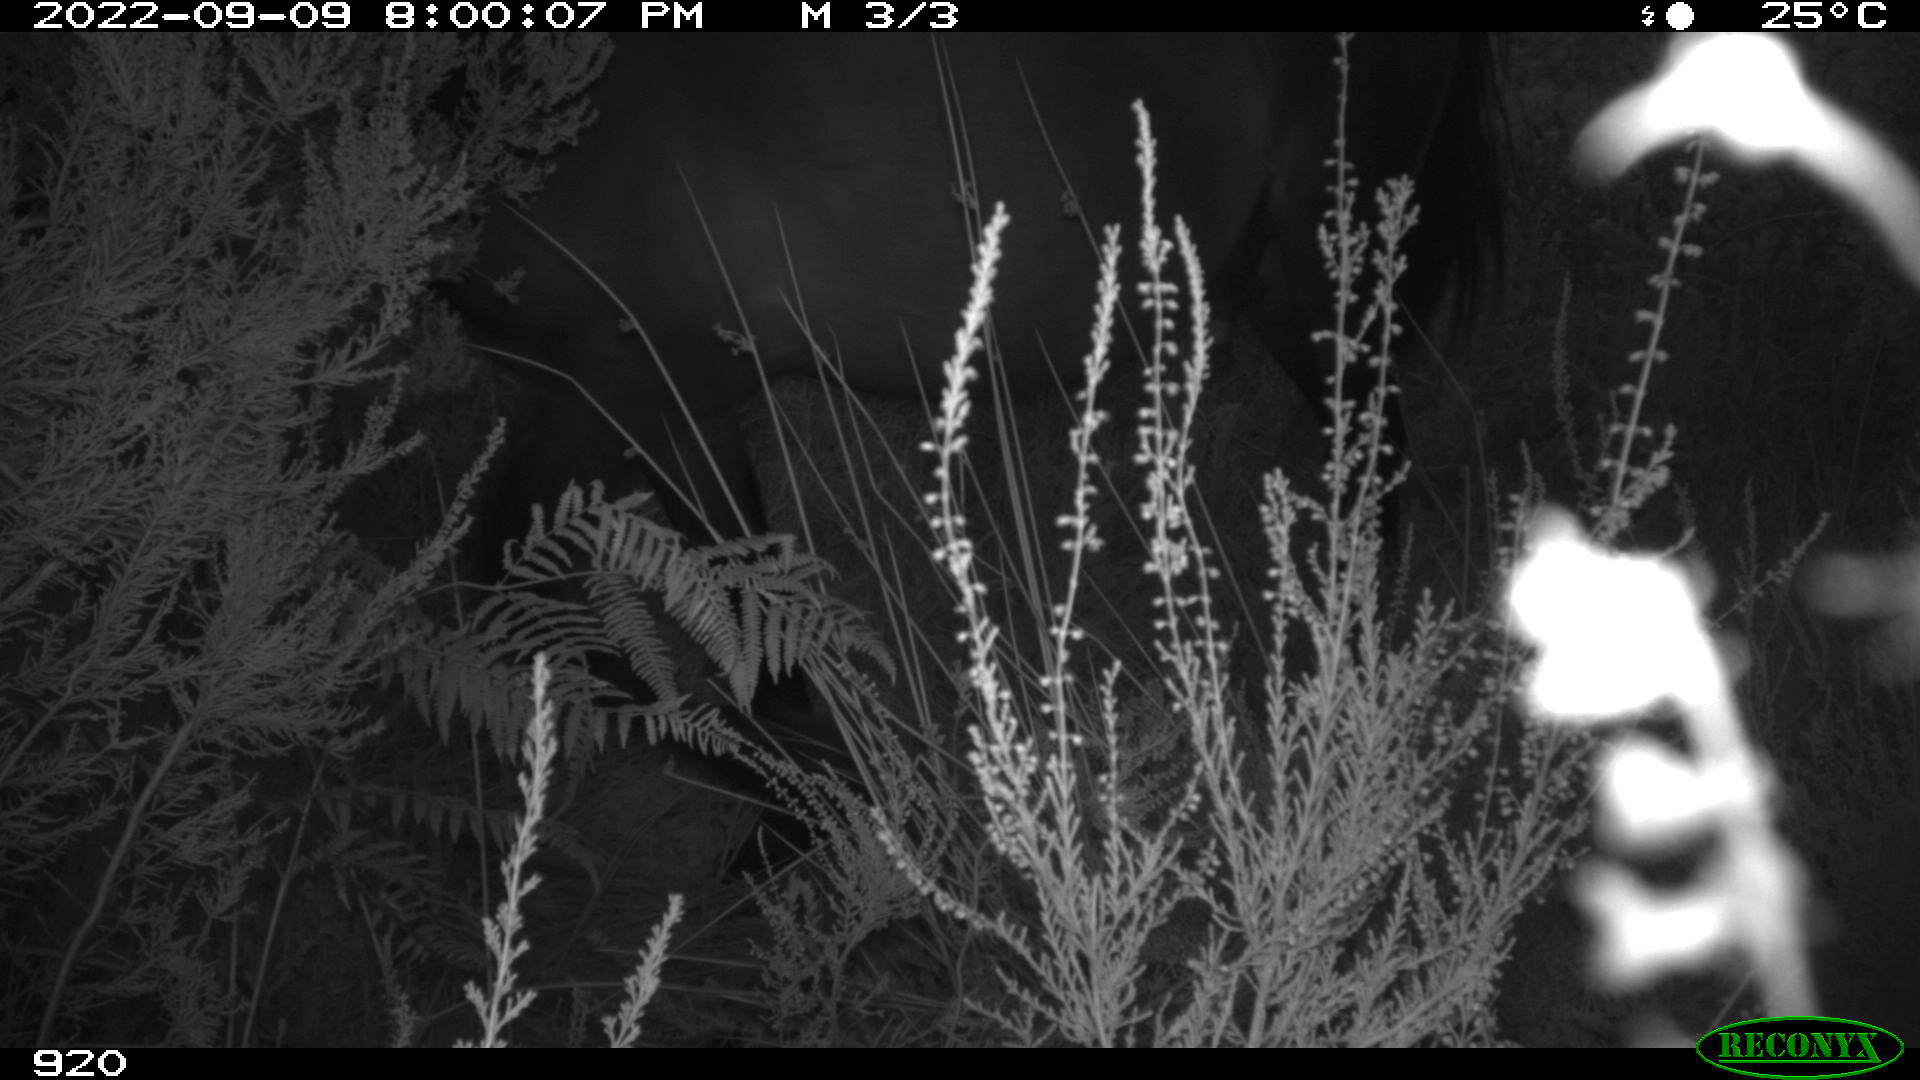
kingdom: Animalia
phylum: Chordata
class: Mammalia
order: Perissodactyla
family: Equidae
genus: Equus
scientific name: Equus caballus
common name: Horse
